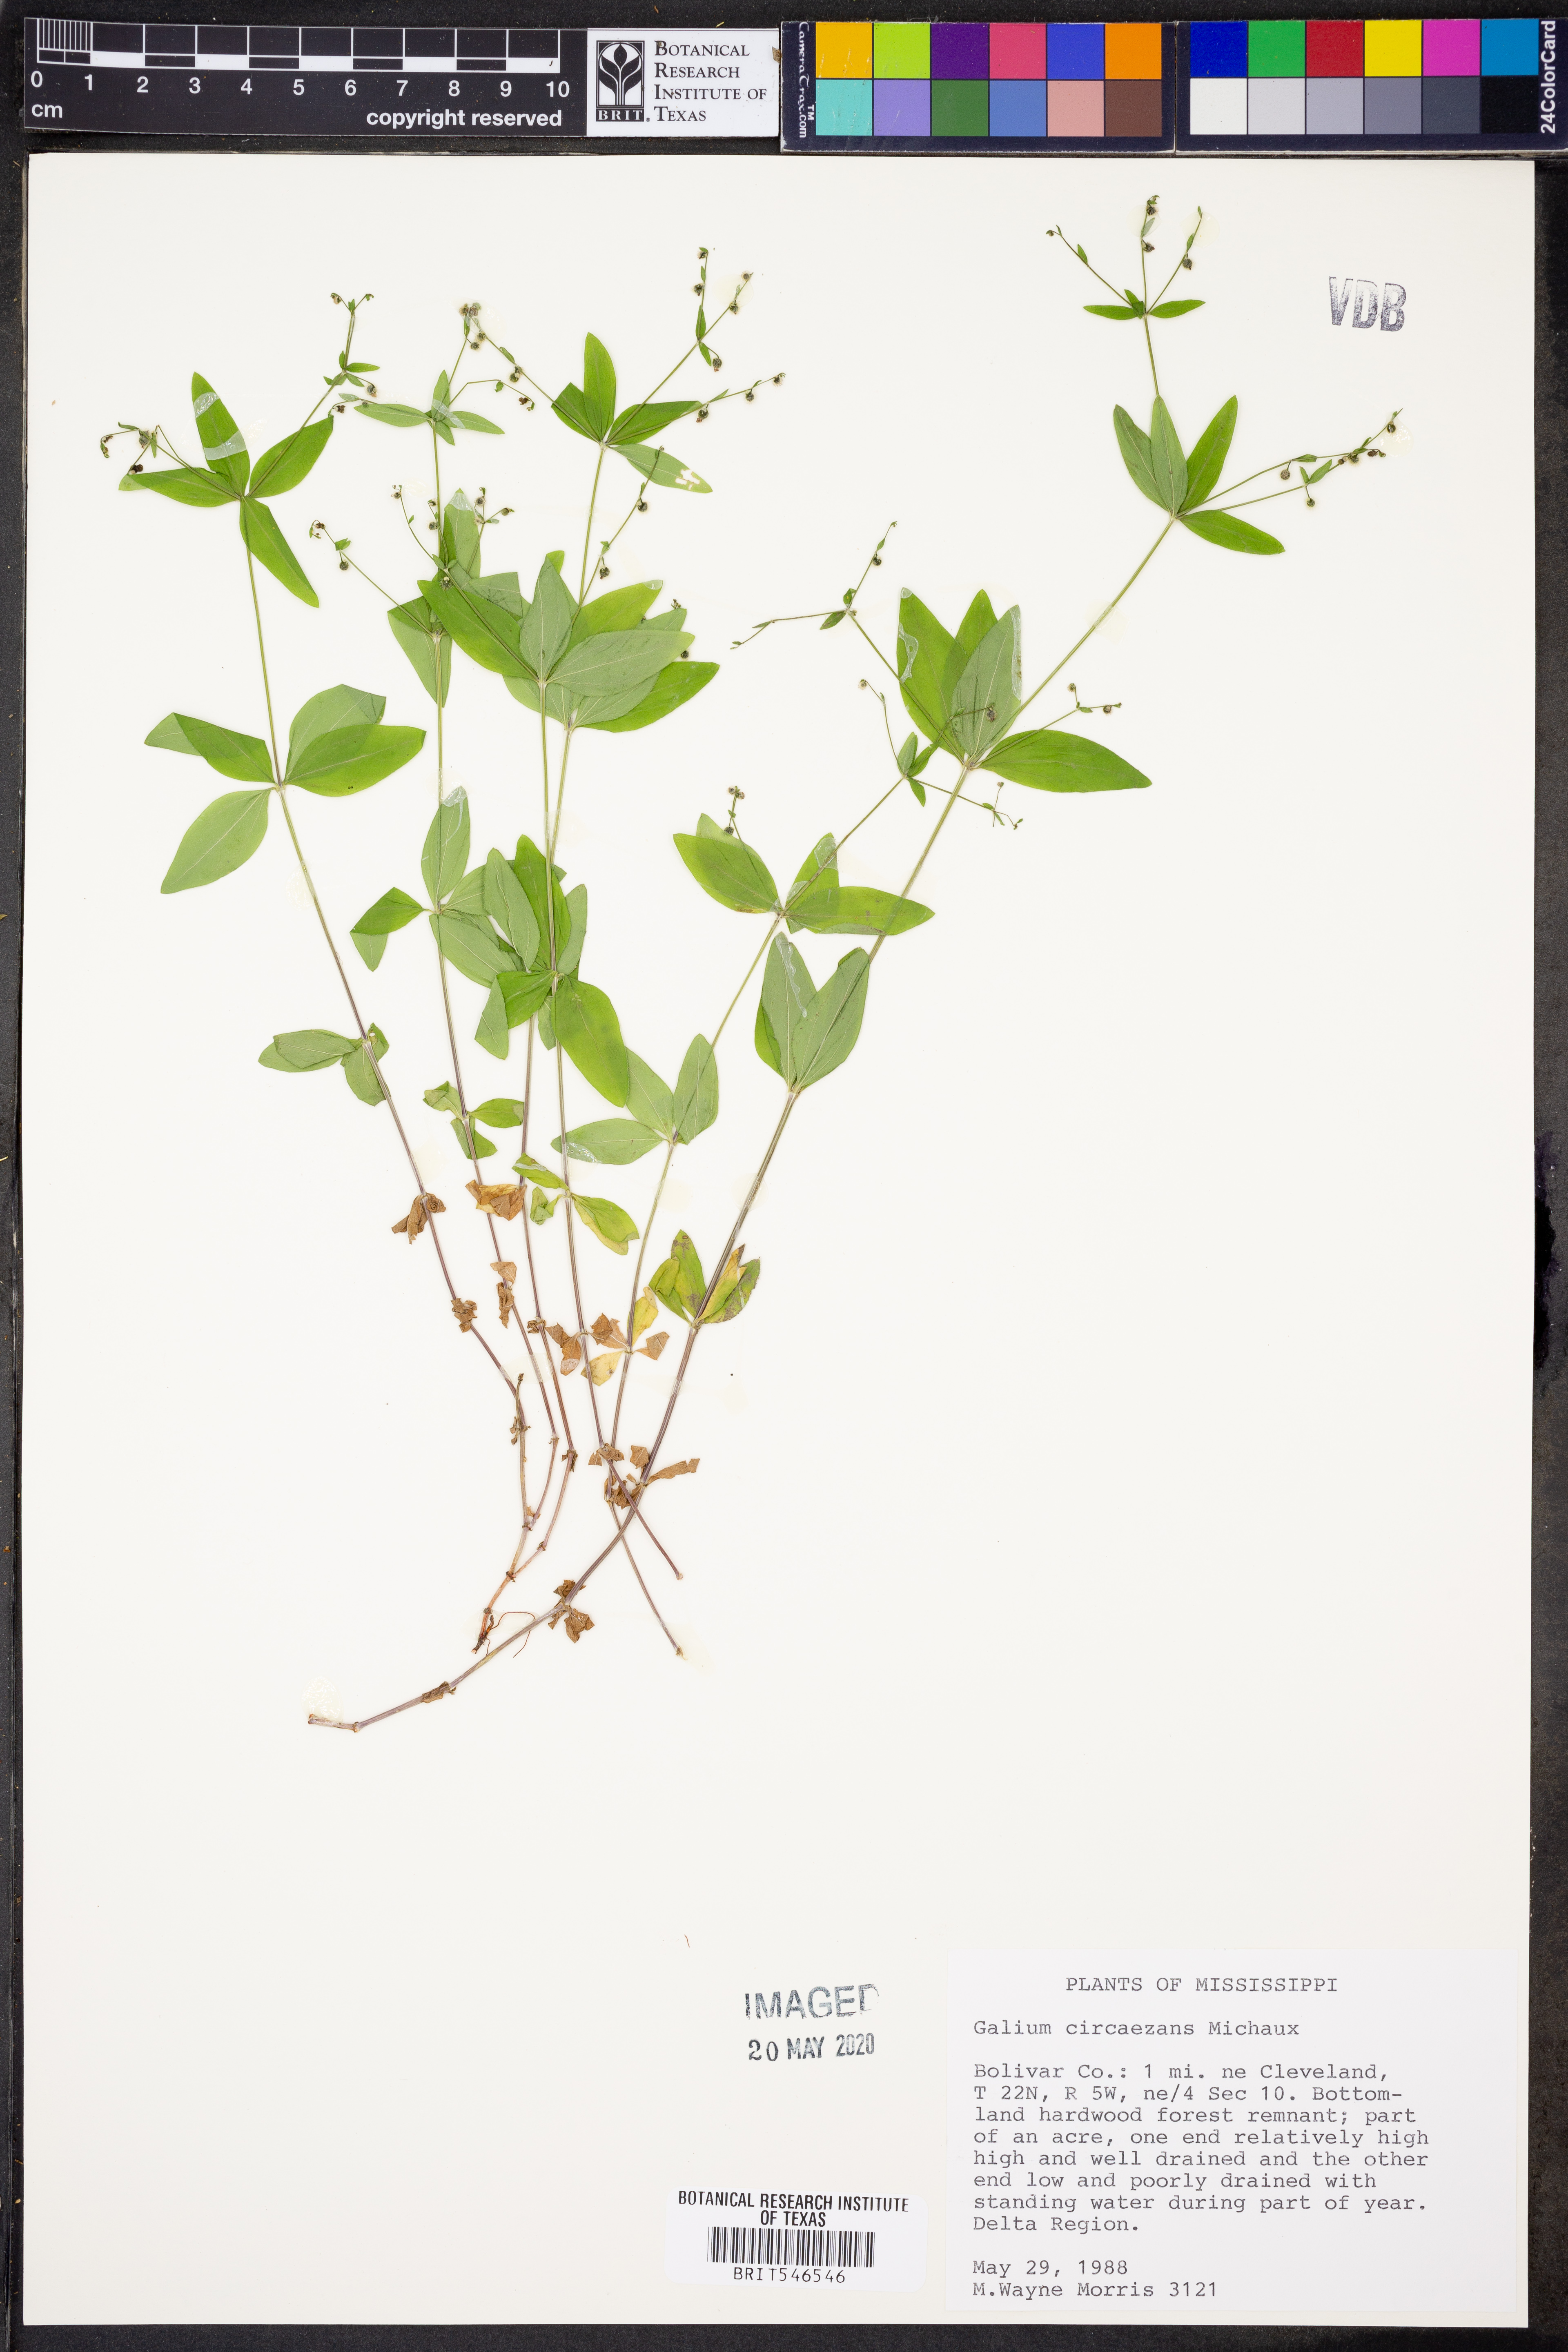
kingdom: Plantae
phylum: Tracheophyta
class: Magnoliopsida
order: Gentianales
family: Rubiaceae
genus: Galium
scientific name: Galium circaezans
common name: Forest bedstraw
